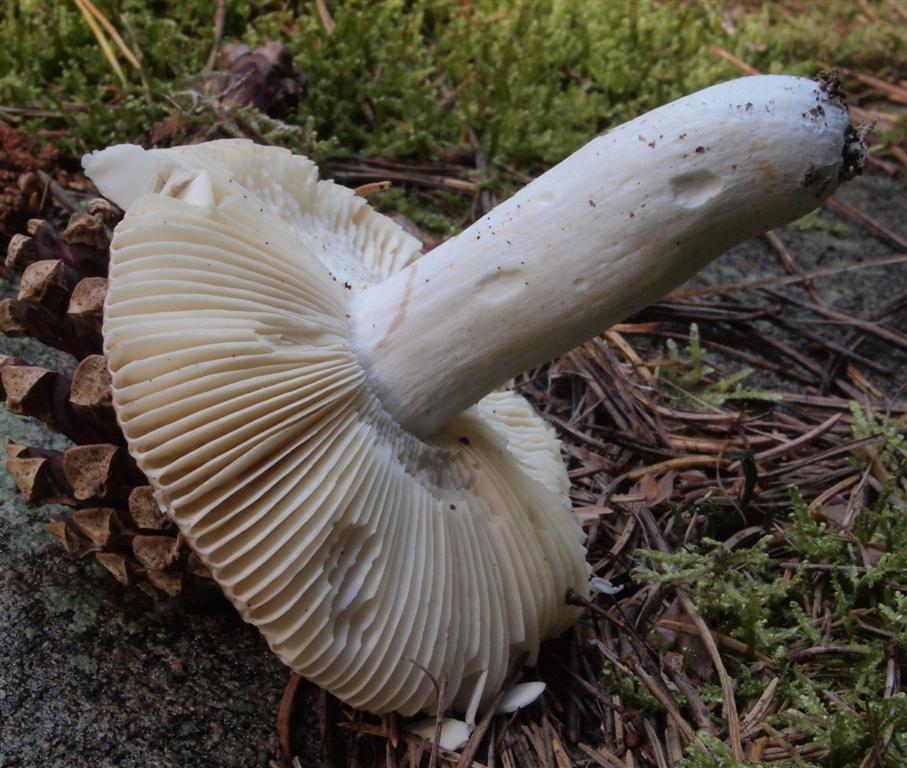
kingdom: Fungi
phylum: Basidiomycota
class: Agaricomycetes
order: Russulales
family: Russulaceae
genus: Russula
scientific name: Russula velenovskyi
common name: orangerød skørhat
